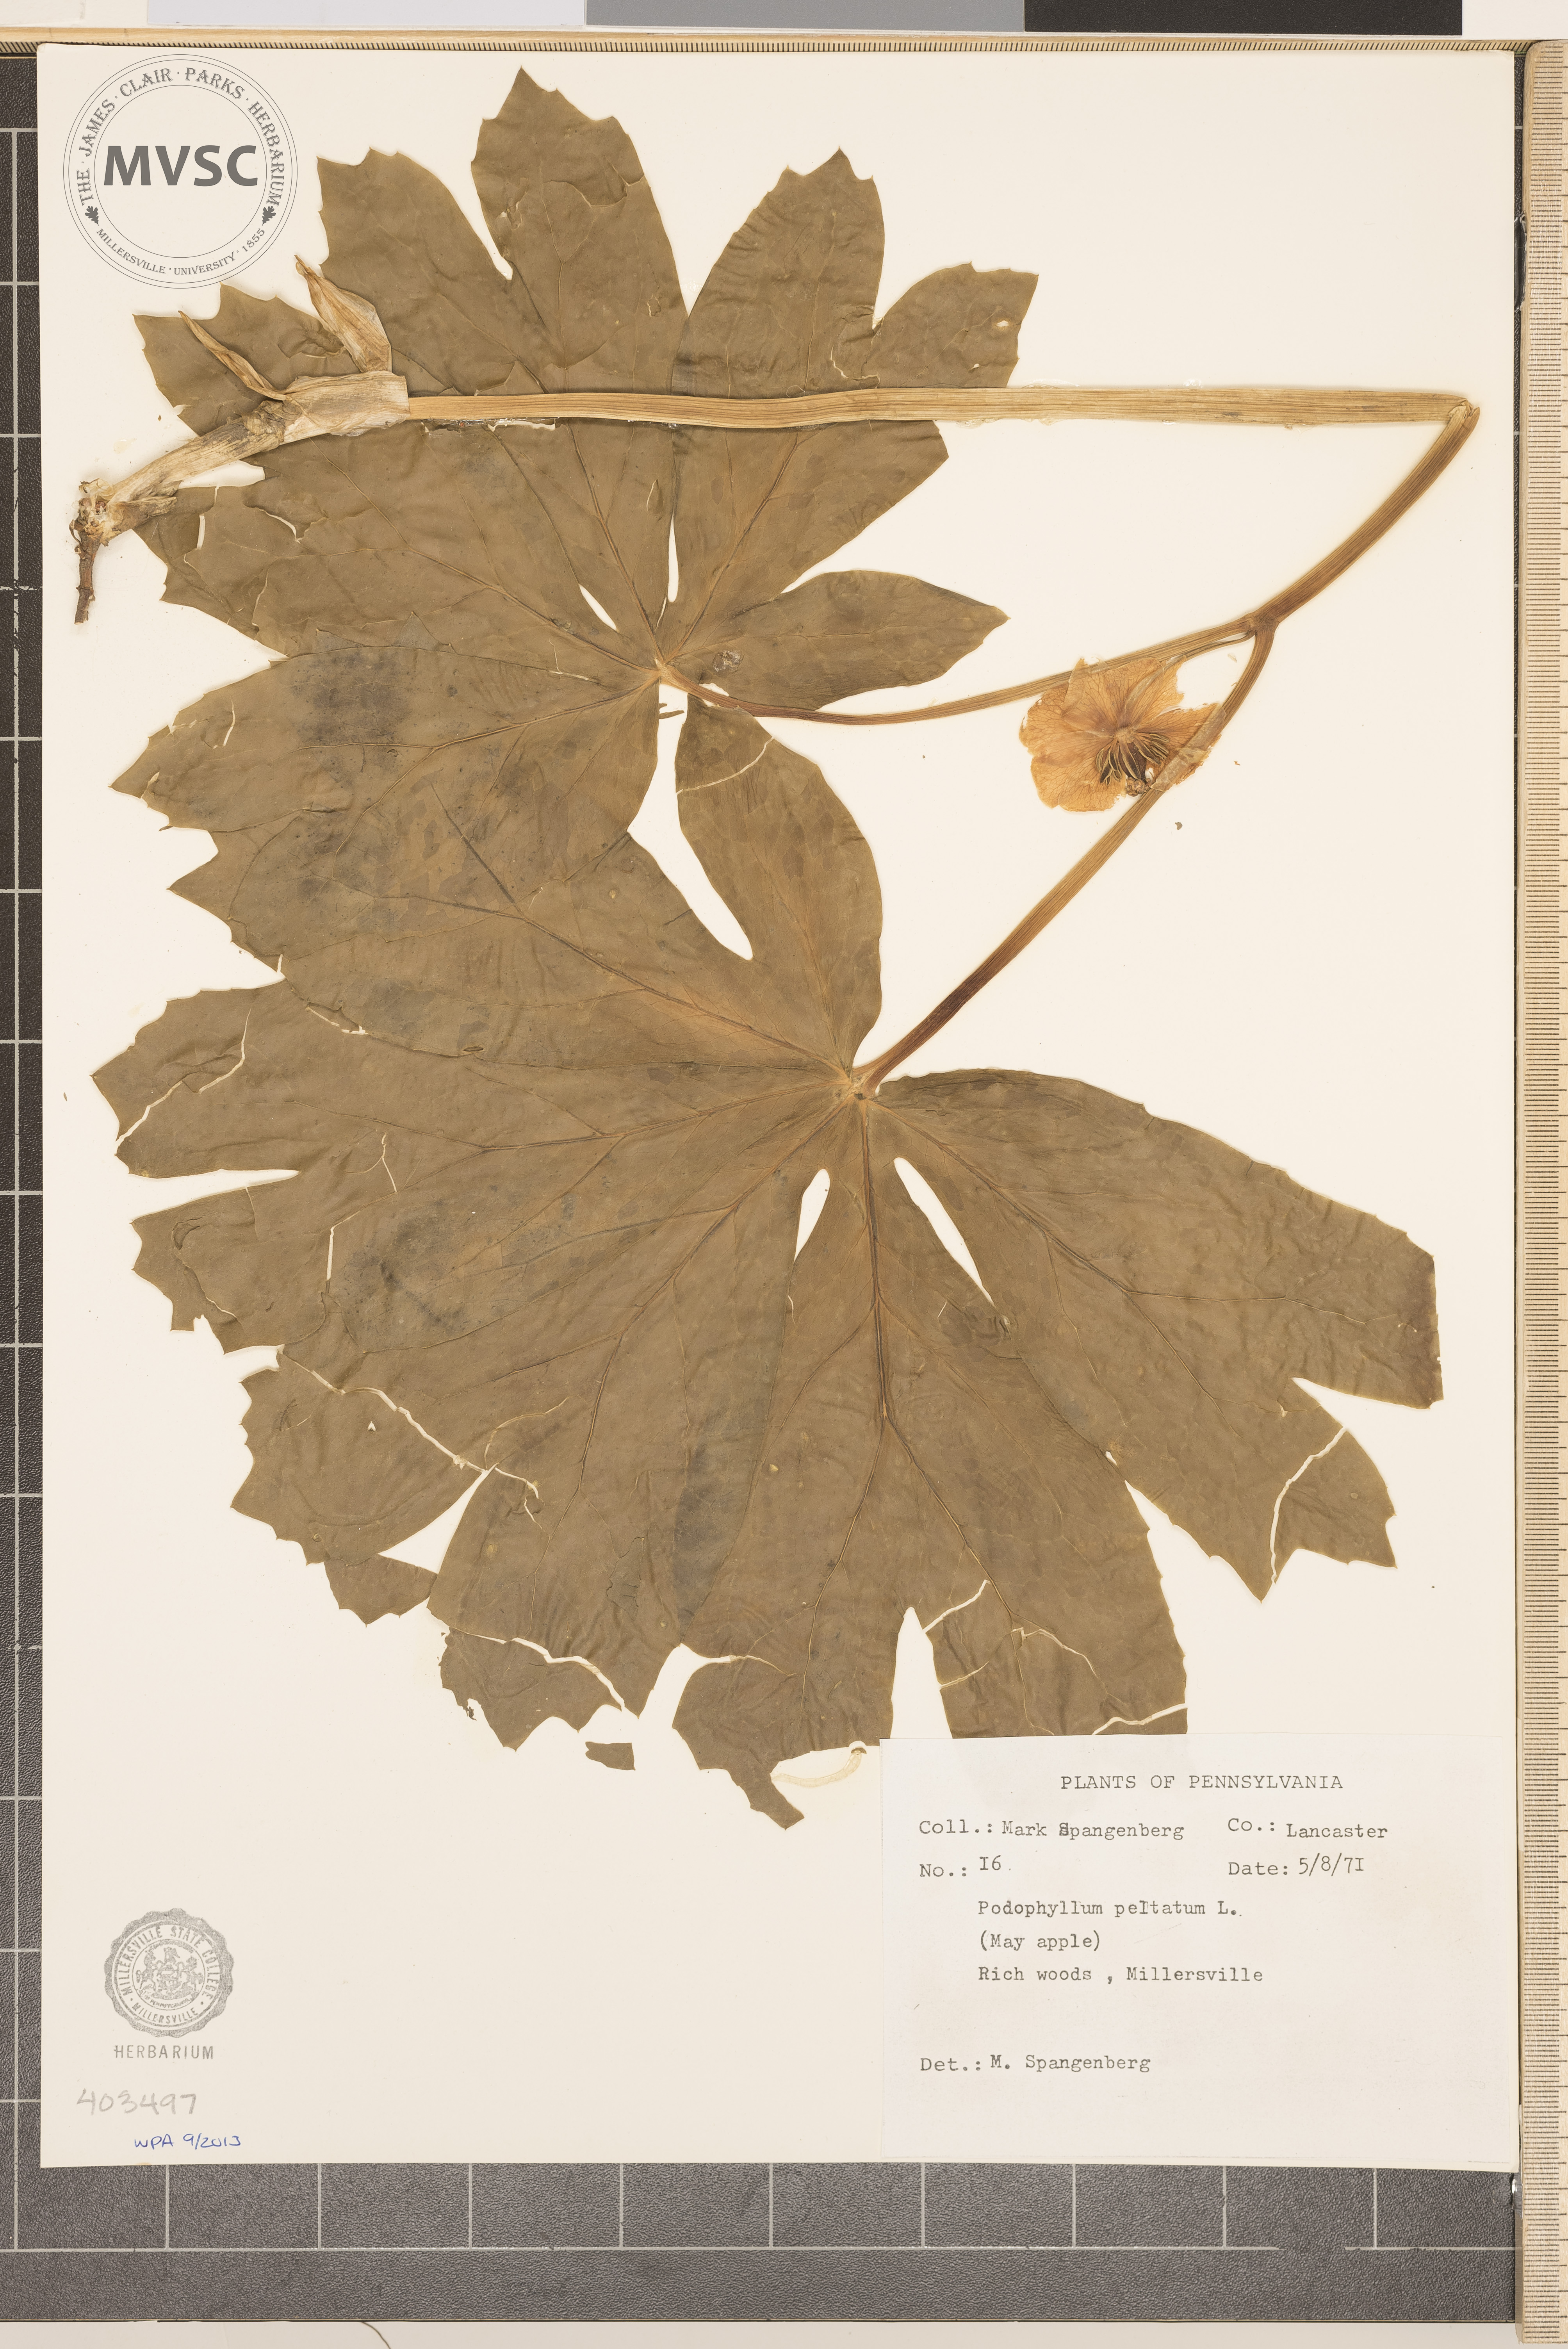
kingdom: Plantae
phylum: Tracheophyta
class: Magnoliopsida
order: Ranunculales
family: Berberidaceae
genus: Podophyllum
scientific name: Podophyllum peltatum
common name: May-Apple
